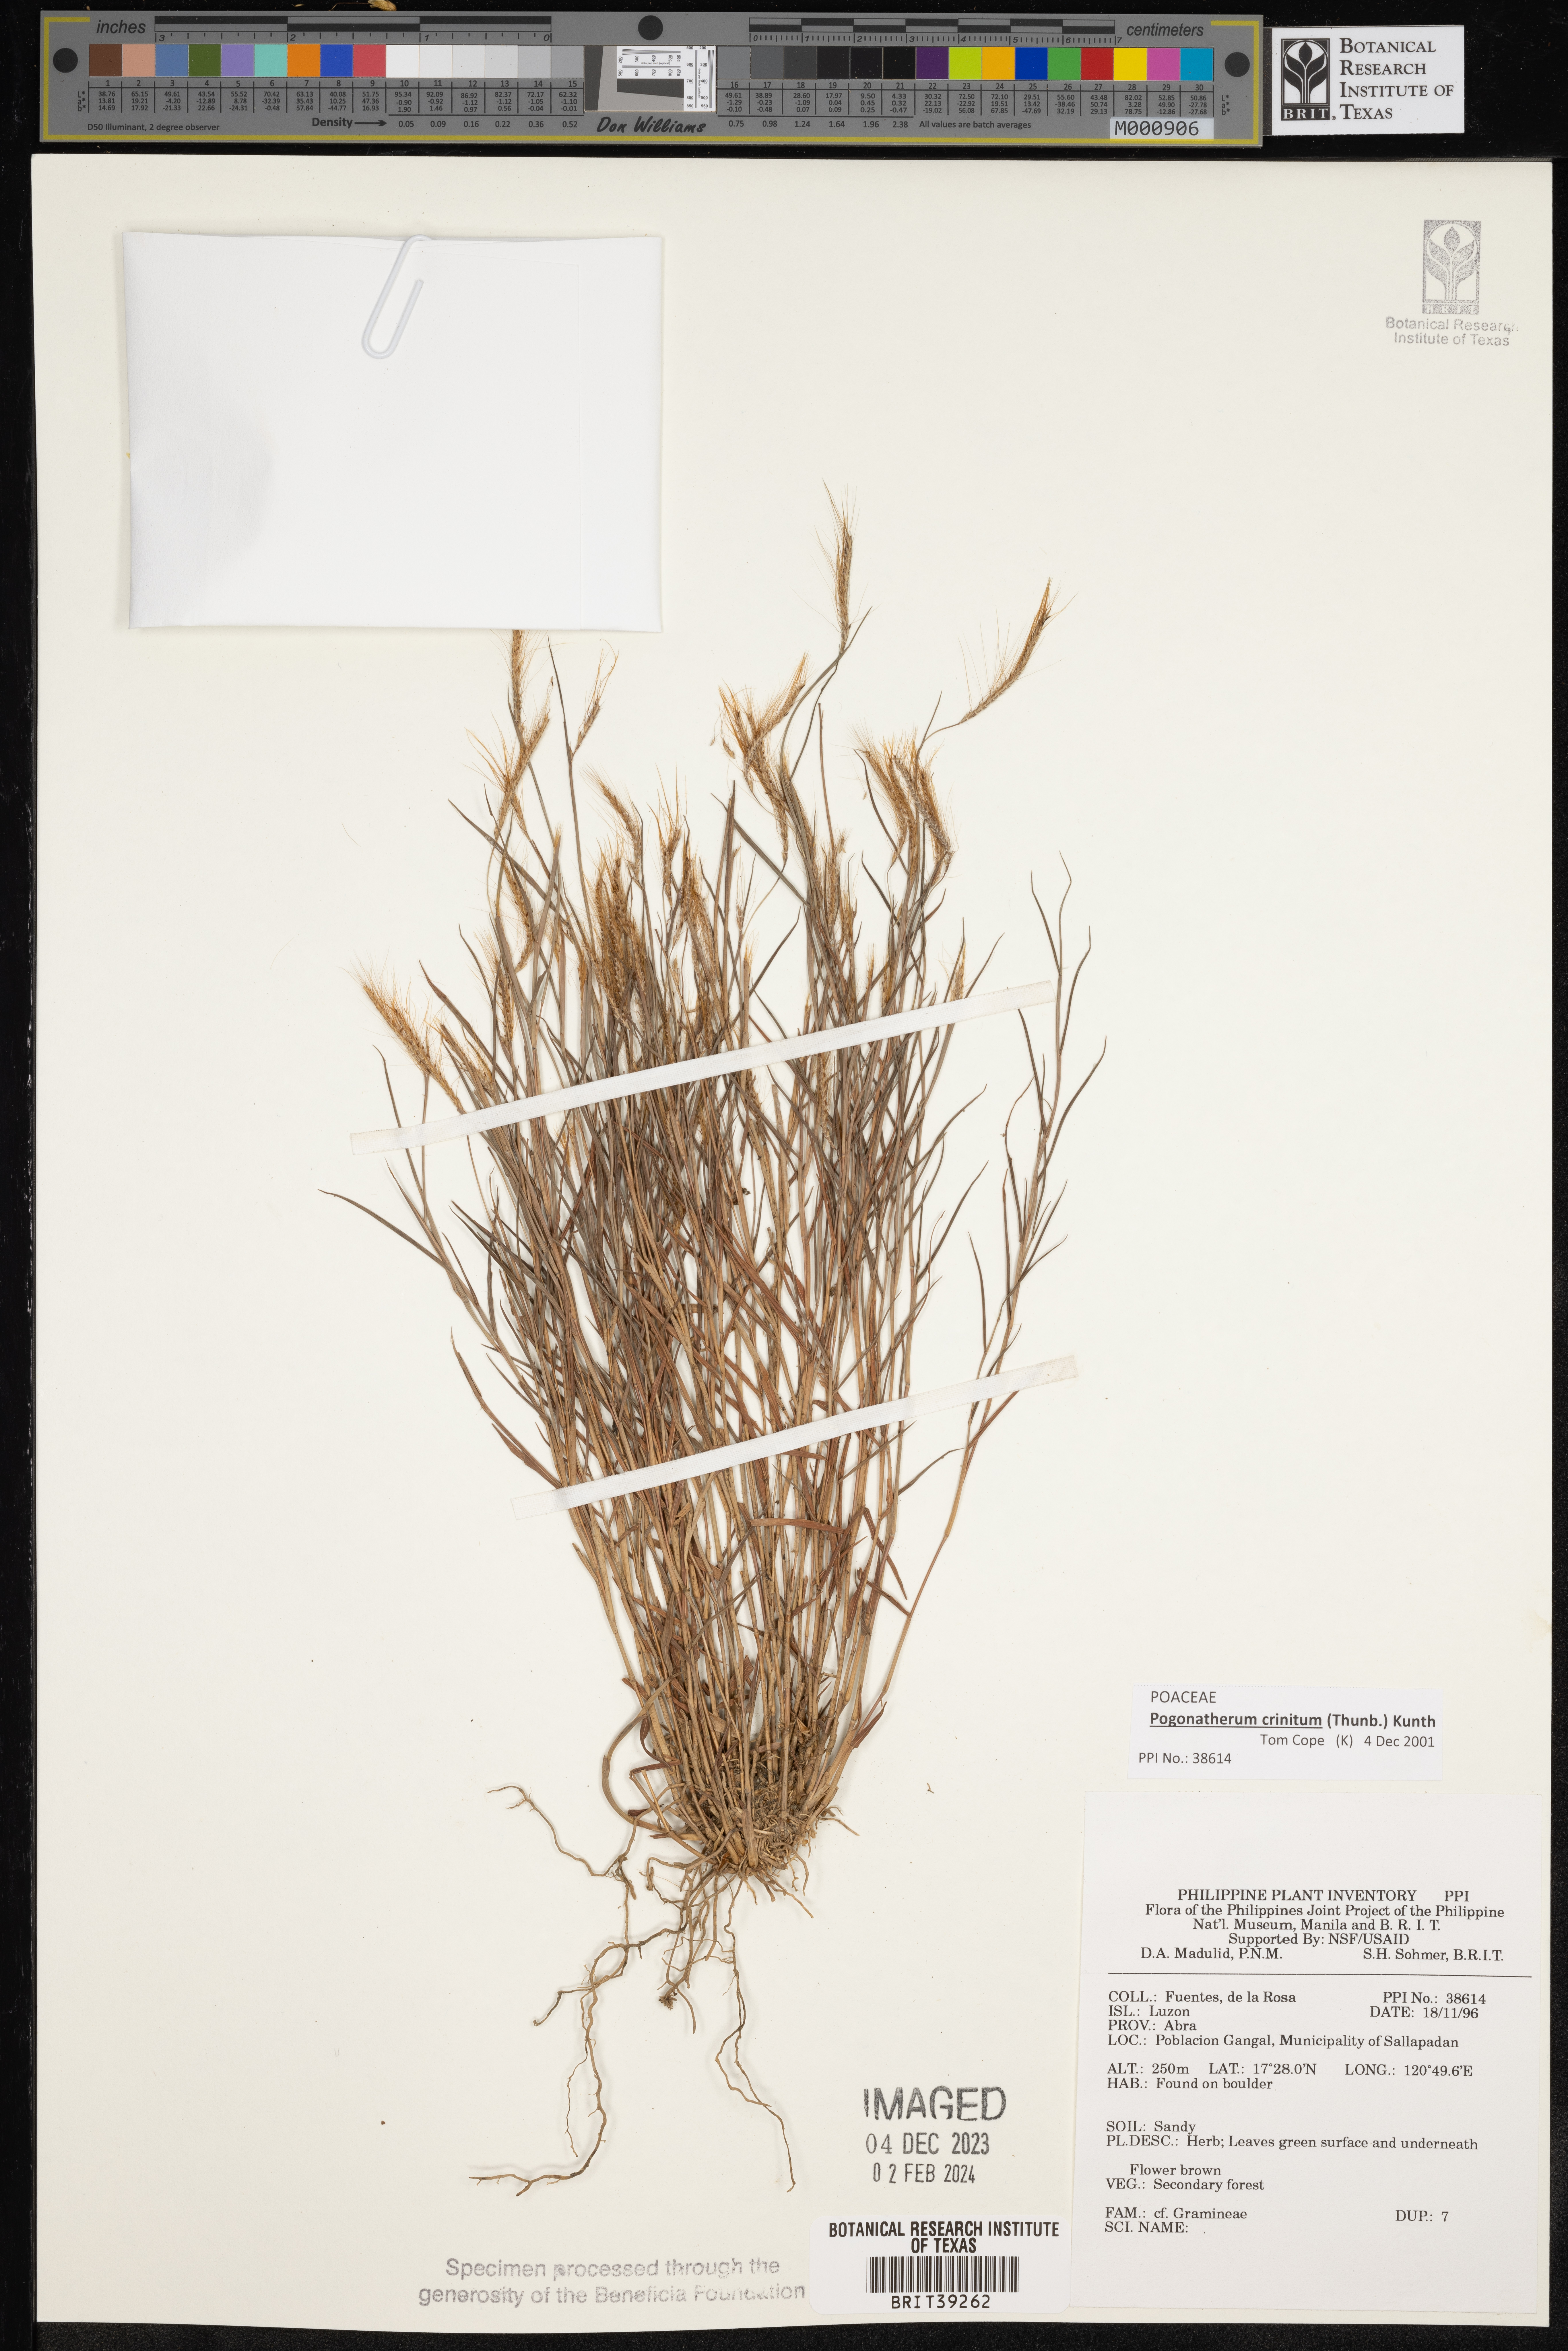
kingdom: Plantae
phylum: Tracheophyta
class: Liliopsida
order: Poales
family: Poaceae
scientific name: Poaceae
